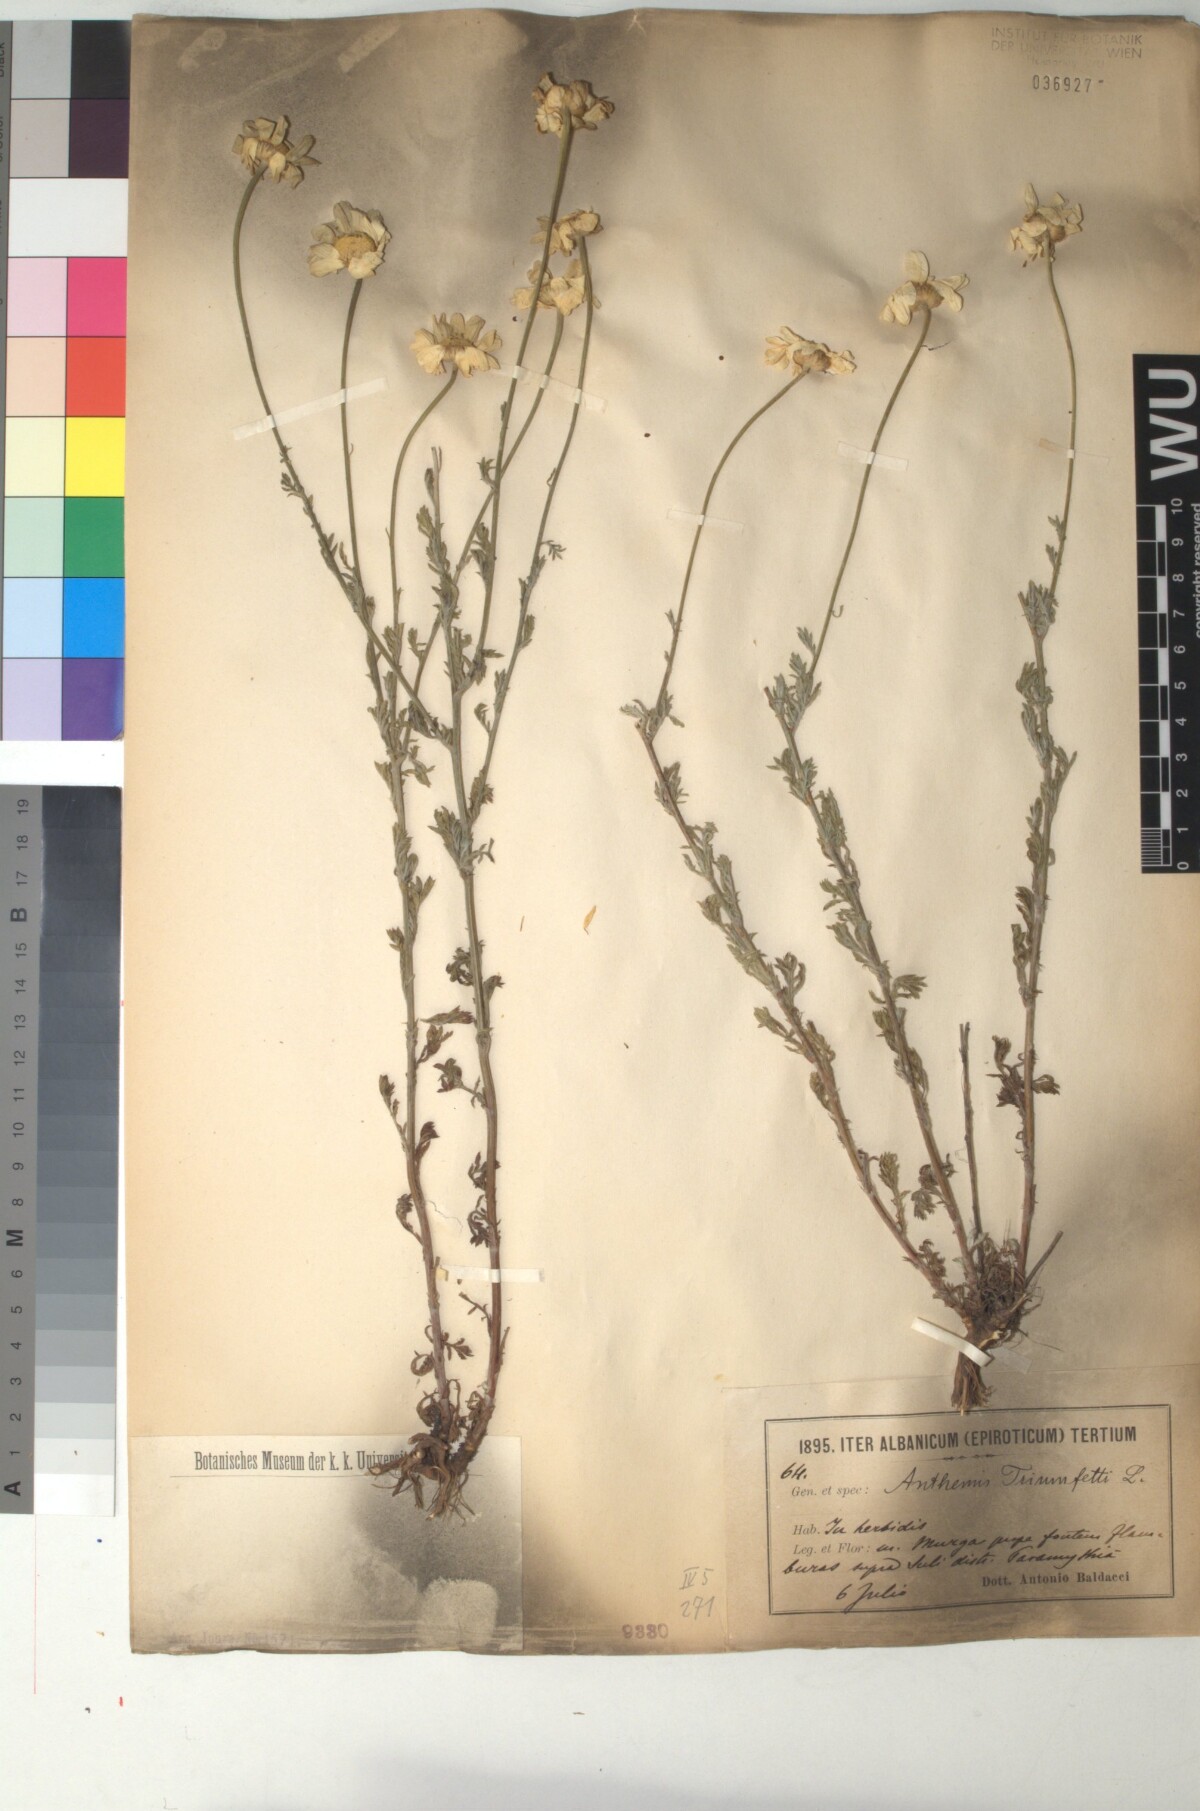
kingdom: Plantae
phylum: Tracheophyta
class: Magnoliopsida
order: Asterales
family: Asteraceae
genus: Cota
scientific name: Cota triumfetti
